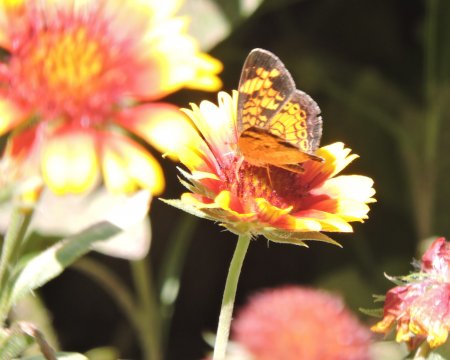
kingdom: Animalia
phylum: Arthropoda
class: Insecta
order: Lepidoptera
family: Nymphalidae
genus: Phyciodes
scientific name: Phyciodes tharos
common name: Pearl Crescent
